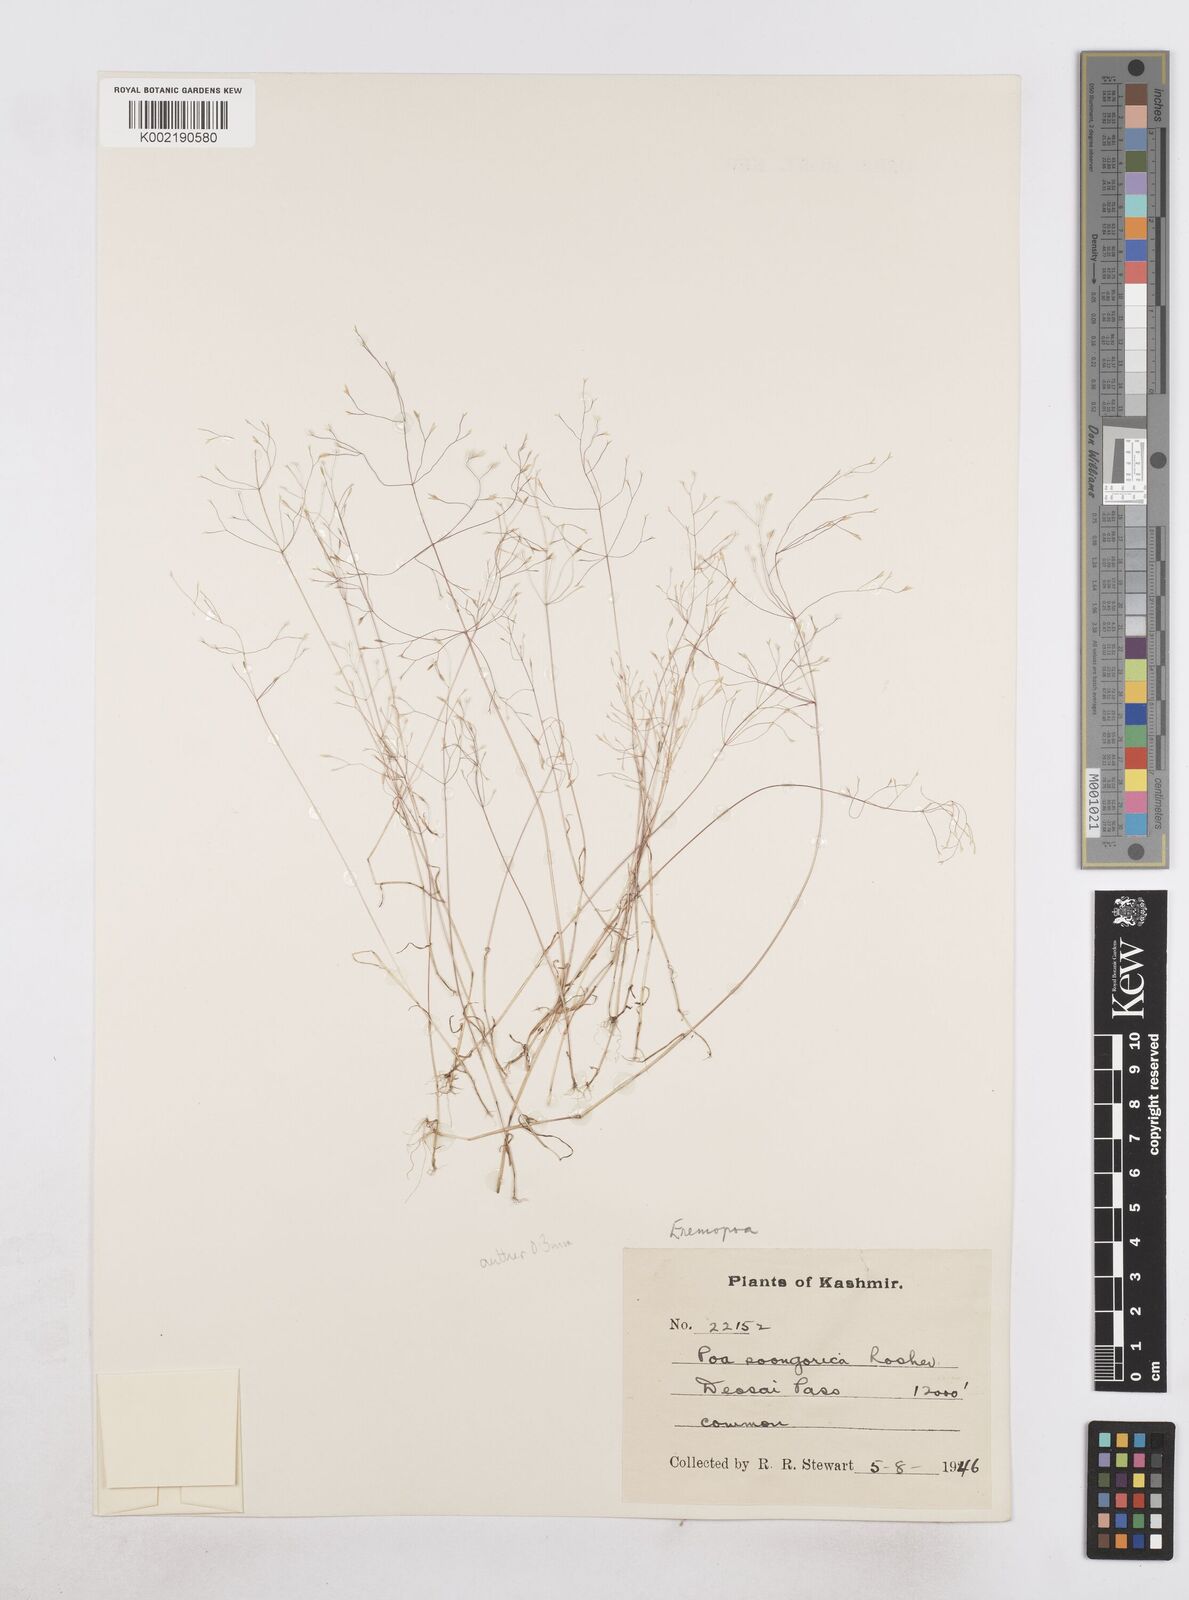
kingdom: Plantae
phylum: Tracheophyta
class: Liliopsida
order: Poales
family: Poaceae
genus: Poa
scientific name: Poa diaphora
